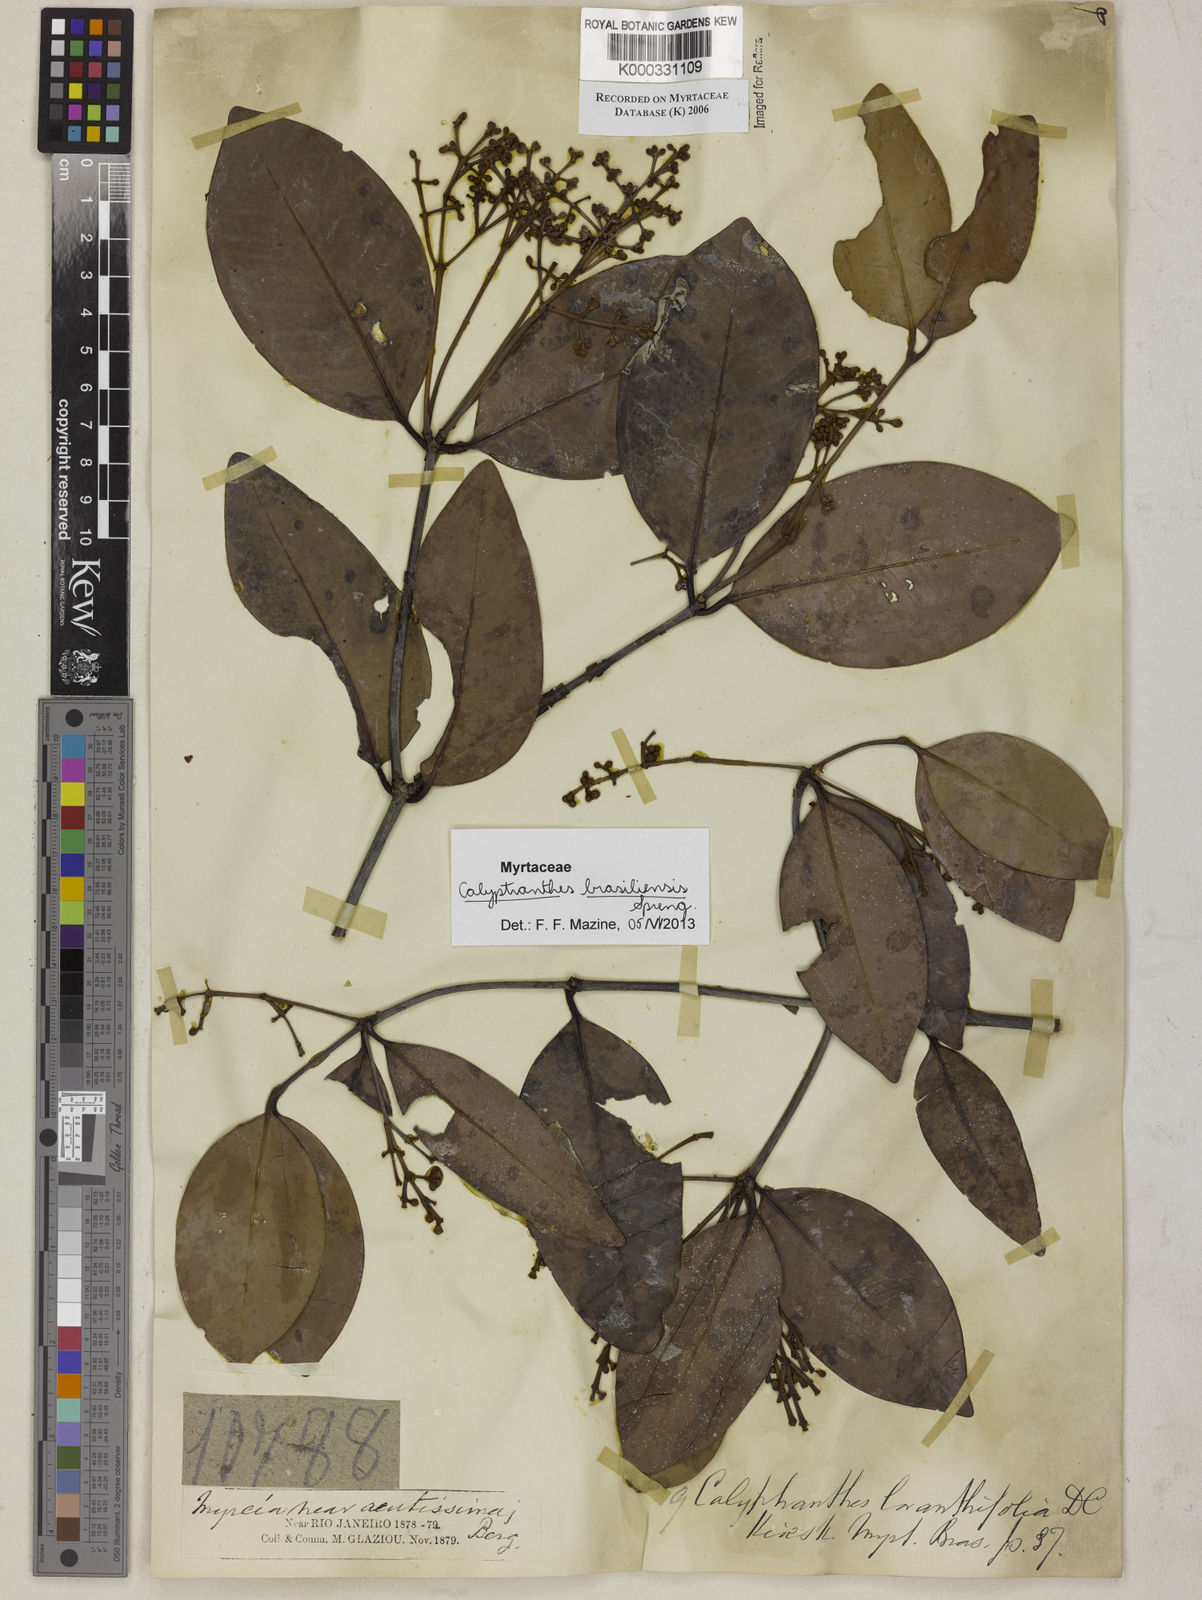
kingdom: Plantae
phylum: Tracheophyta
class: Magnoliopsida
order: Myrtales
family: Myrtaceae
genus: Myrcia
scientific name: Myrcia loranthifolia
